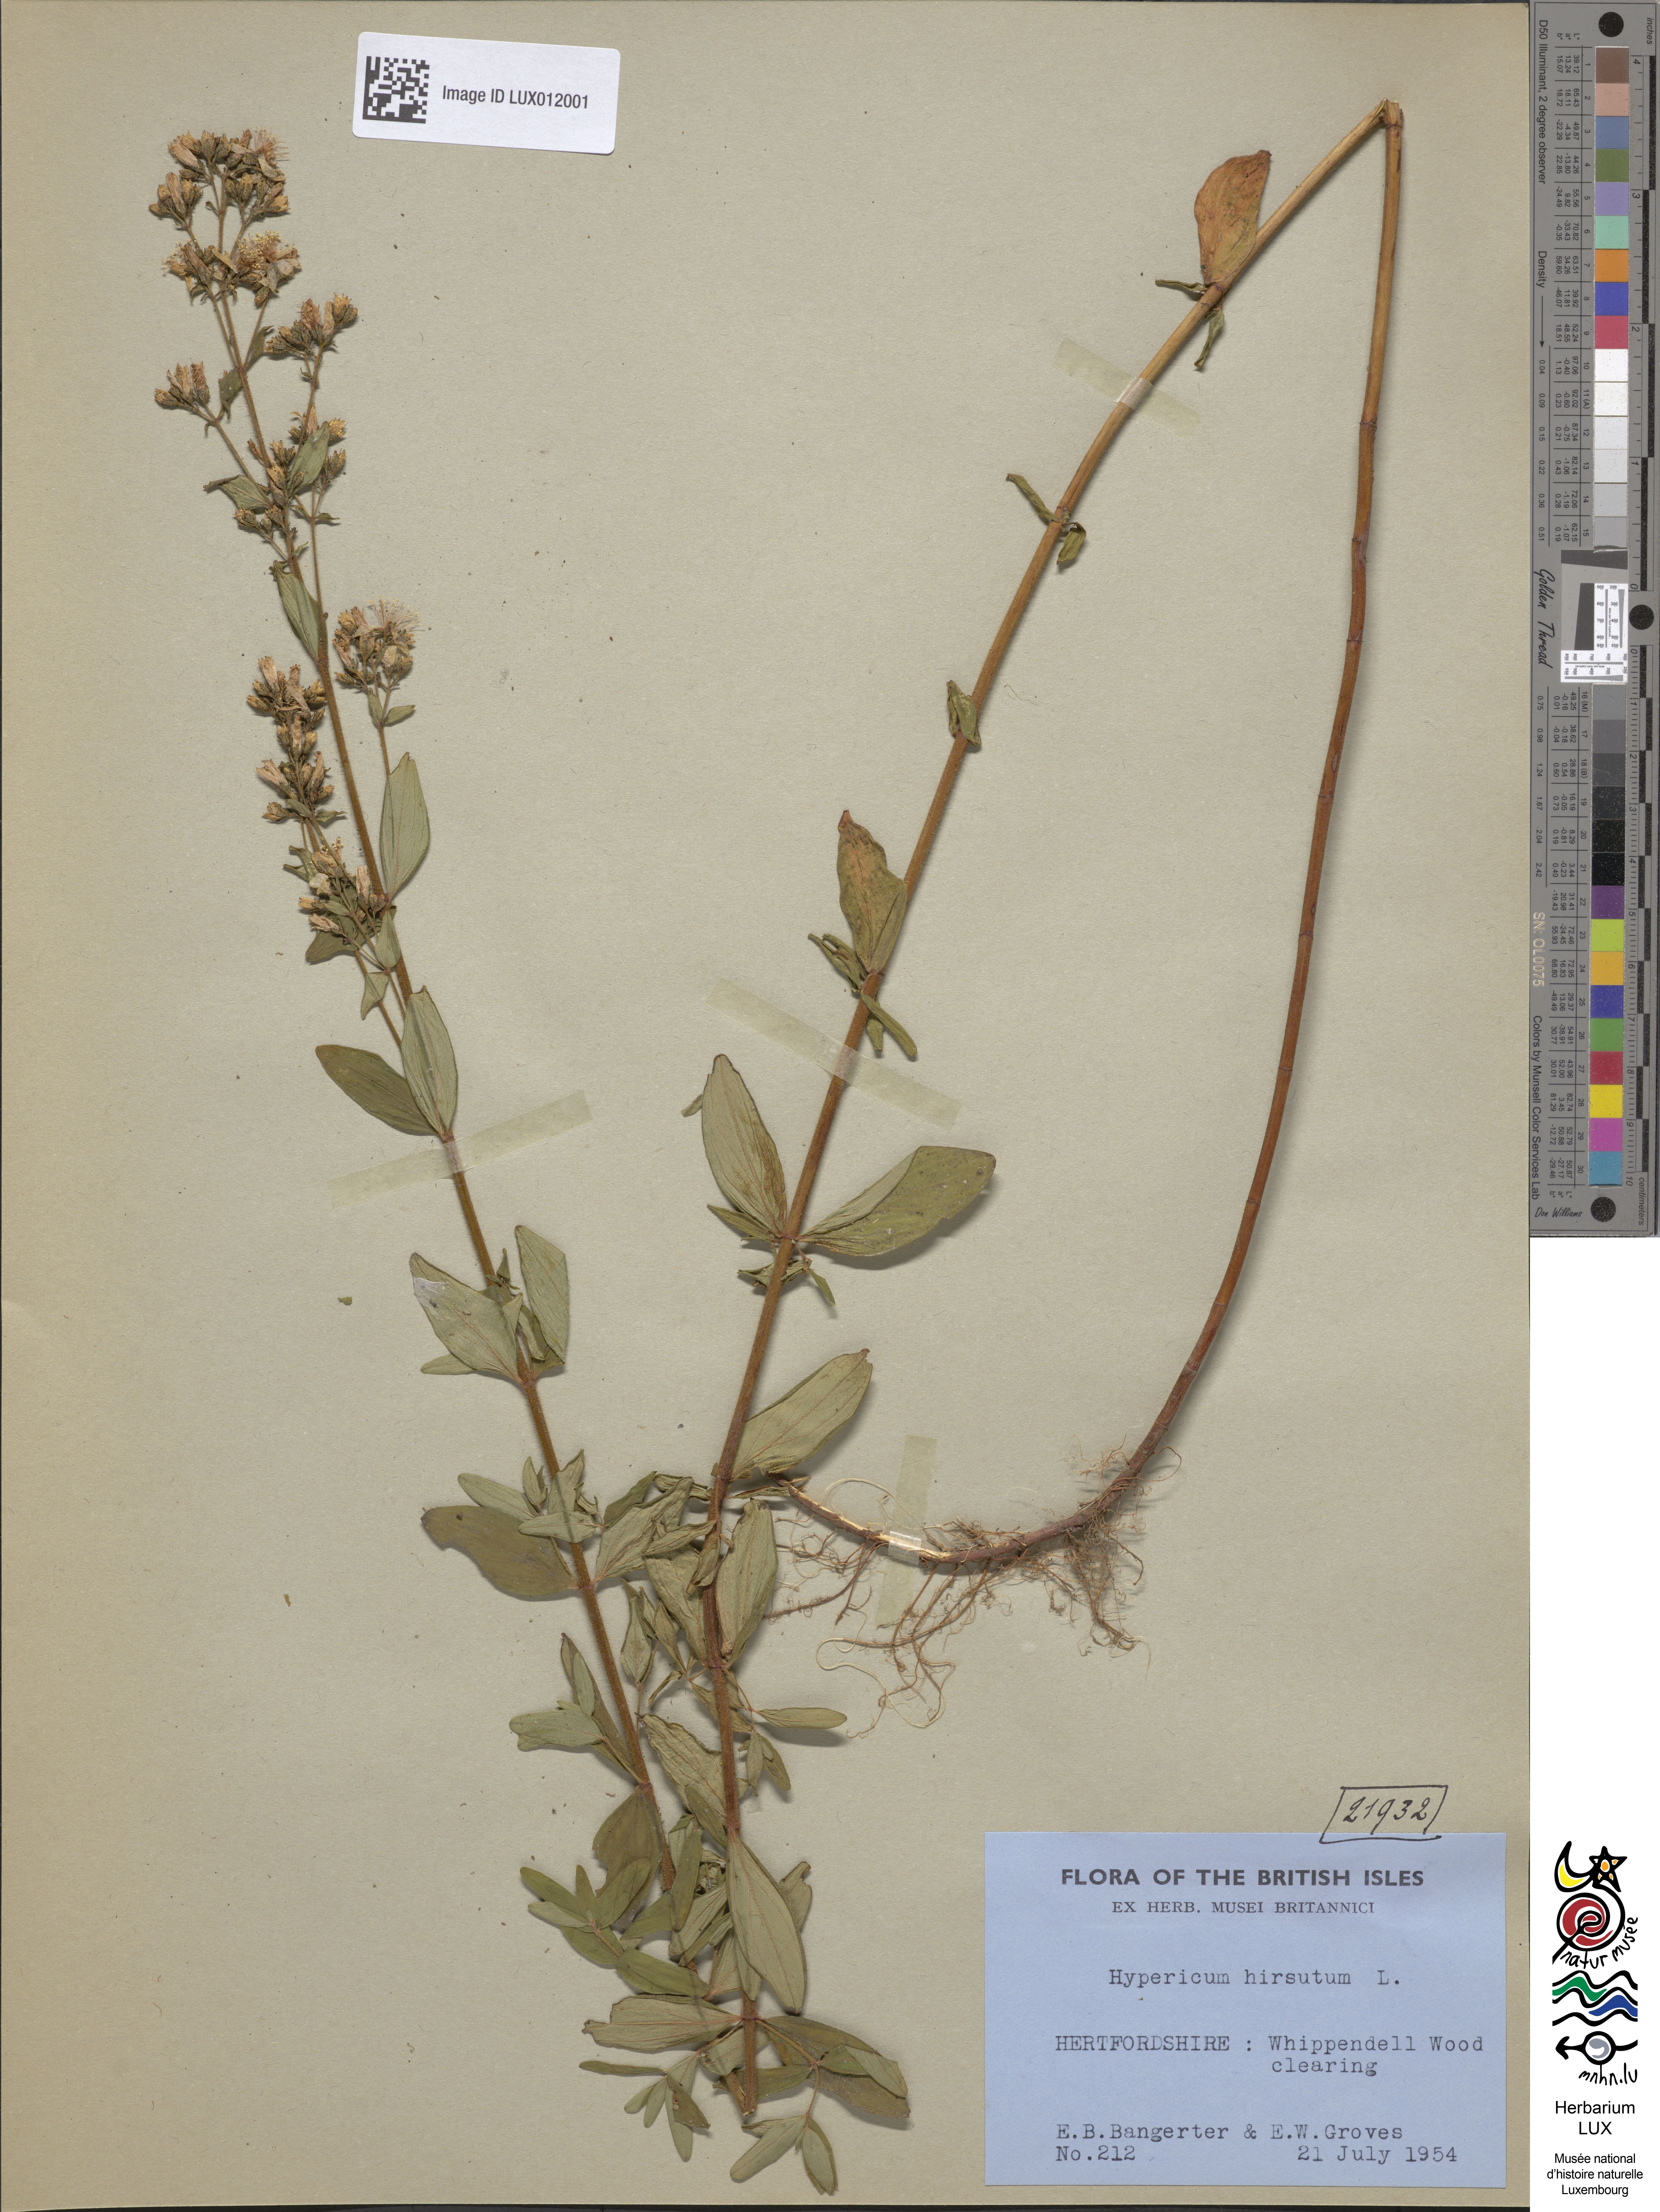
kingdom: Plantae
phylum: Tracheophyta
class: Magnoliopsida
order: Malpighiales
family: Hypericaceae
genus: Hypericum
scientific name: Hypericum hirsutum
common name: Hairy st. john's-wort
